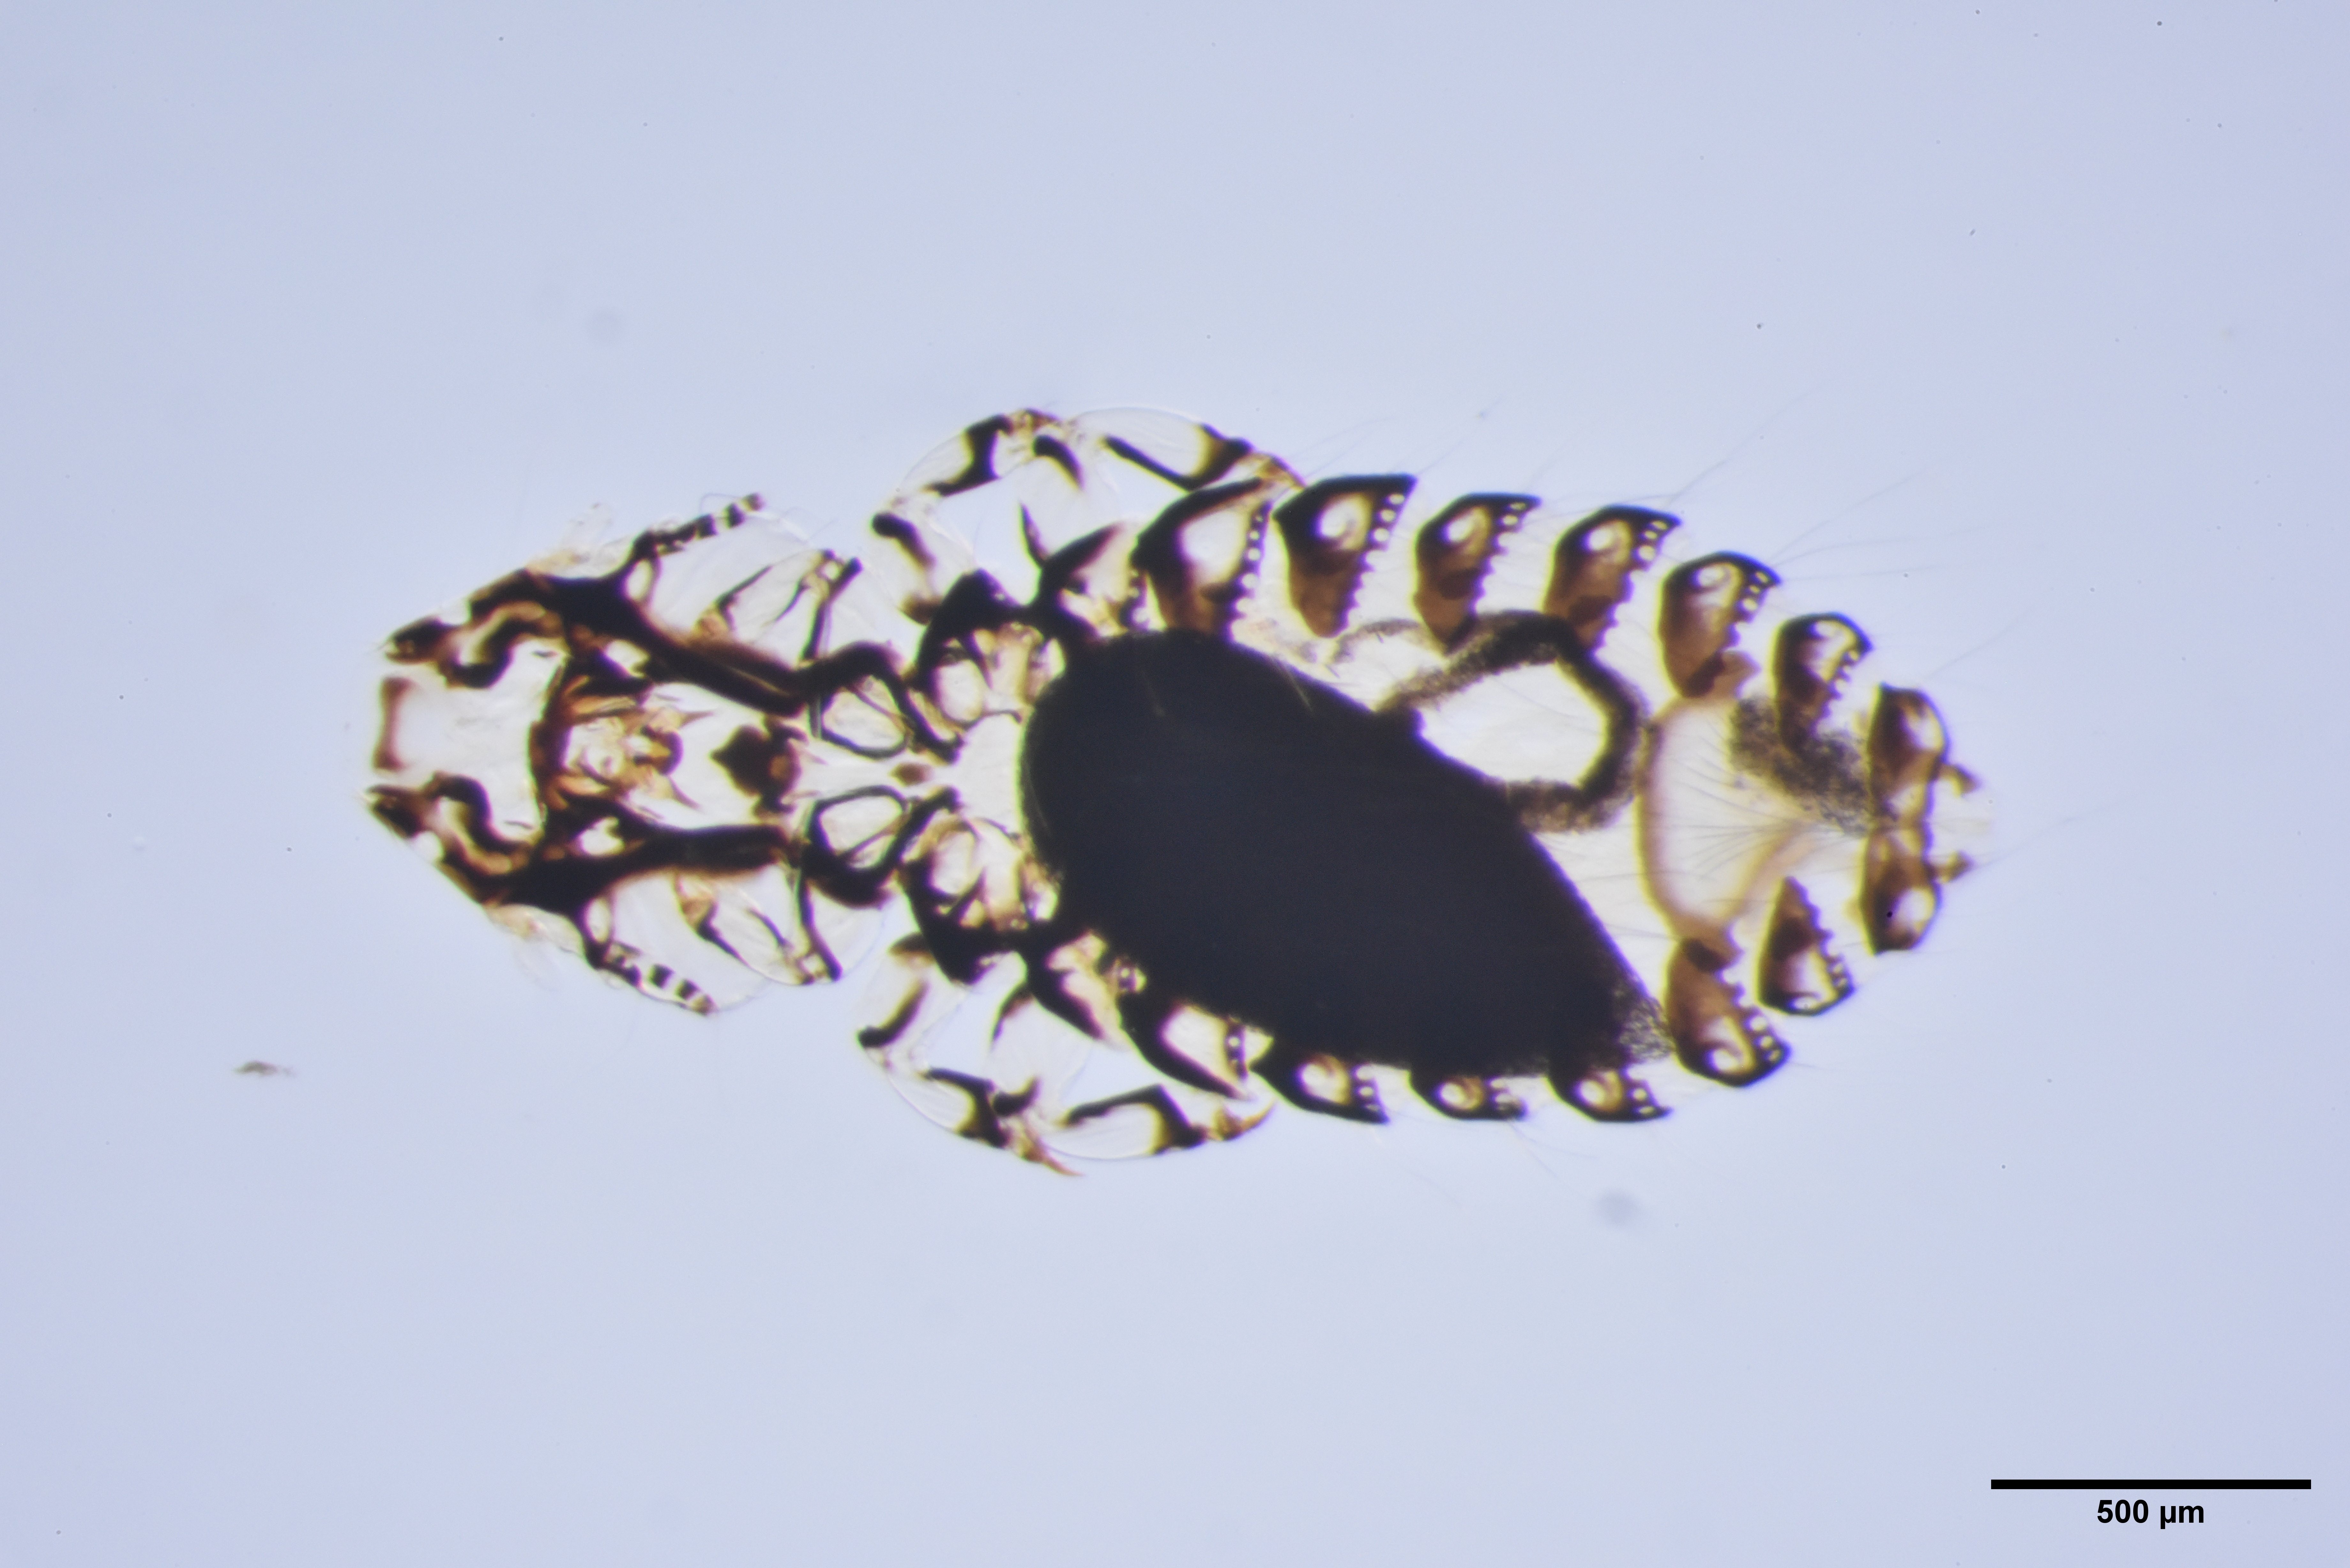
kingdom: Animalia
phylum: Arthropoda
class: Insecta
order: Psocodea
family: Philopteridae
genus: Philopterus
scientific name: Philopterus corvi
